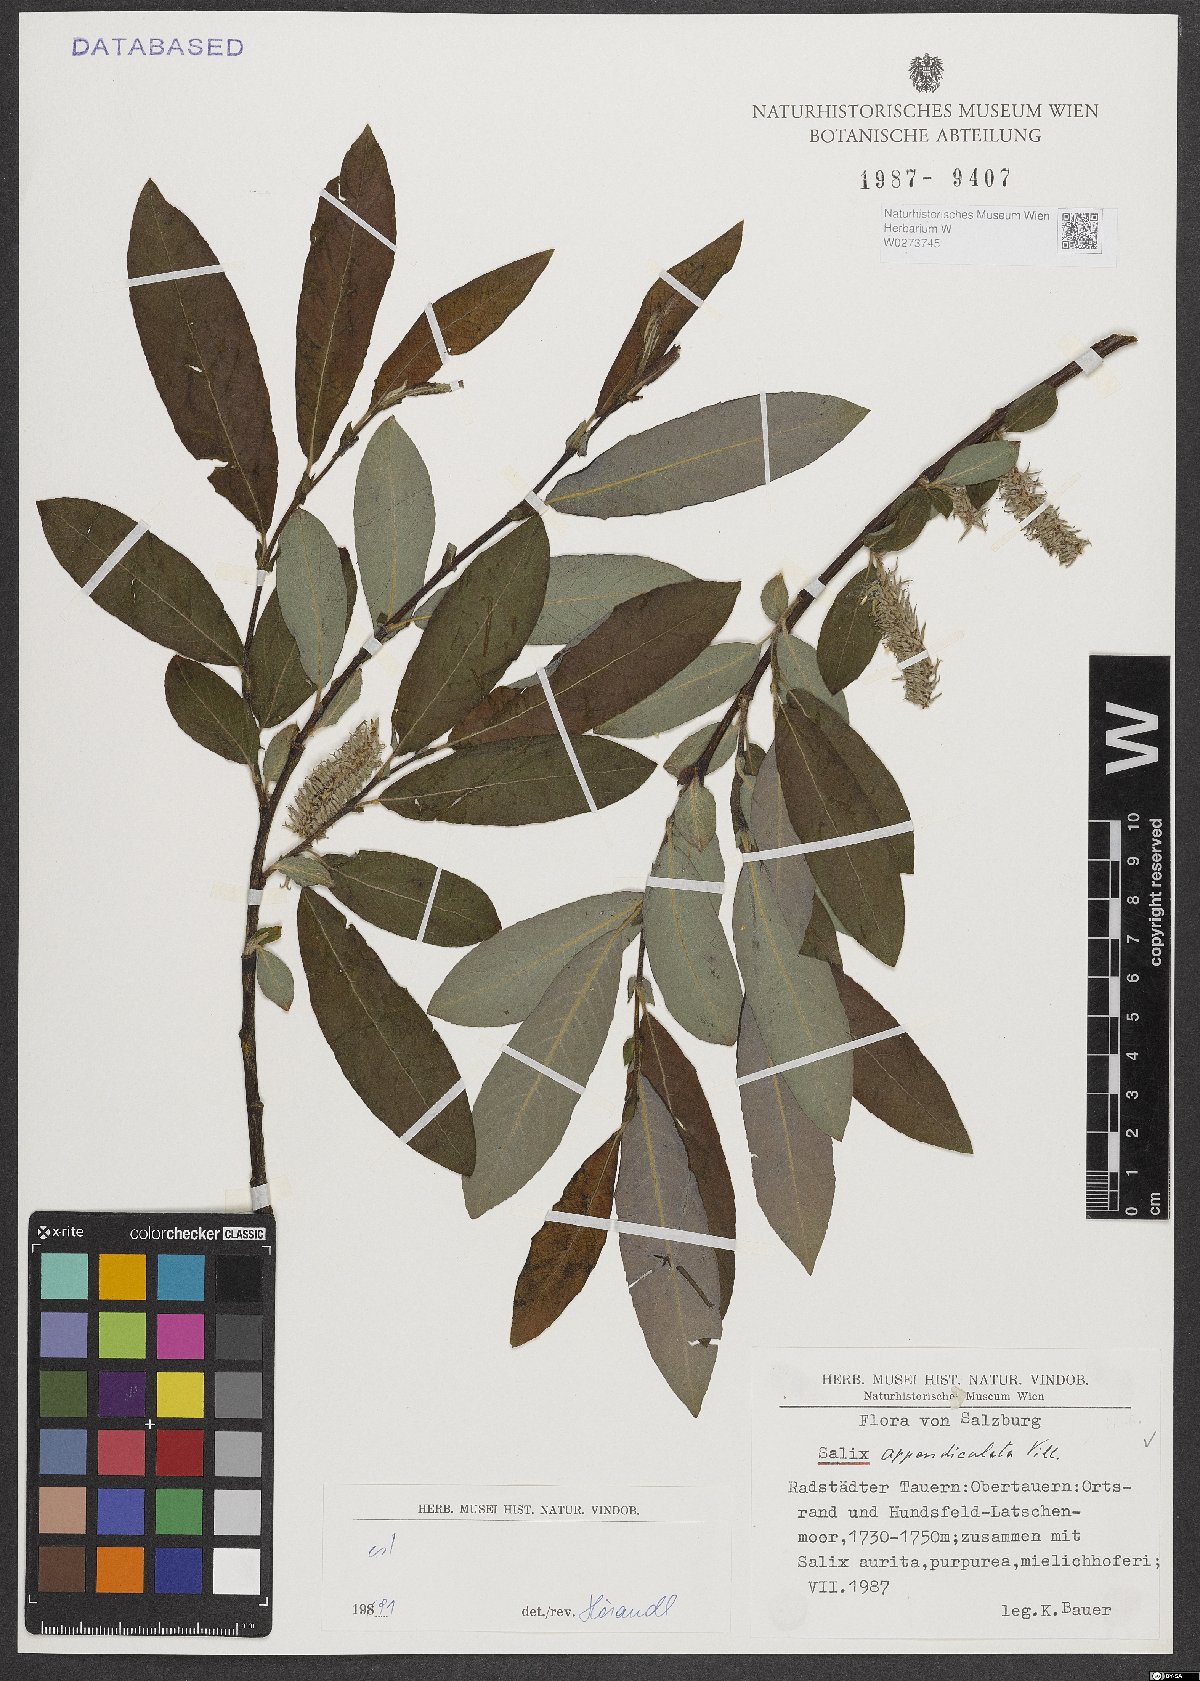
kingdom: Plantae
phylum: Tracheophyta
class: Magnoliopsida
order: Malpighiales
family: Salicaceae
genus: Salix
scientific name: Salix appendiculata
